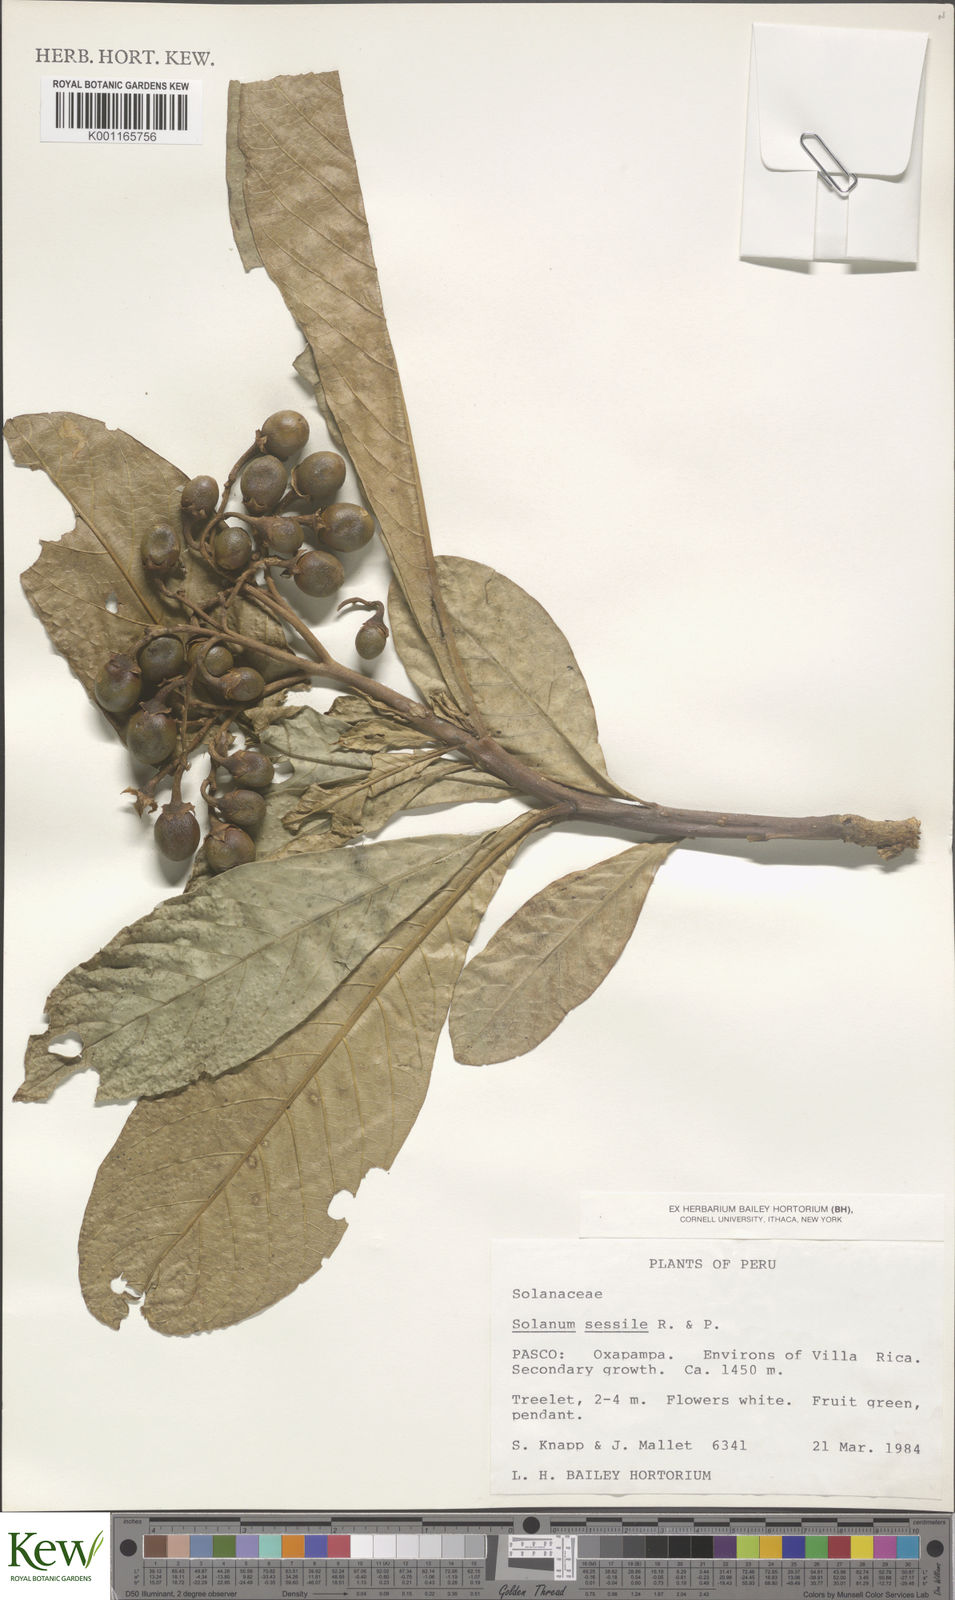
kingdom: Plantae
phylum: Tracheophyta
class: Magnoliopsida
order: Solanales
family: Solanaceae
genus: Solanum
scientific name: Solanum sessile
